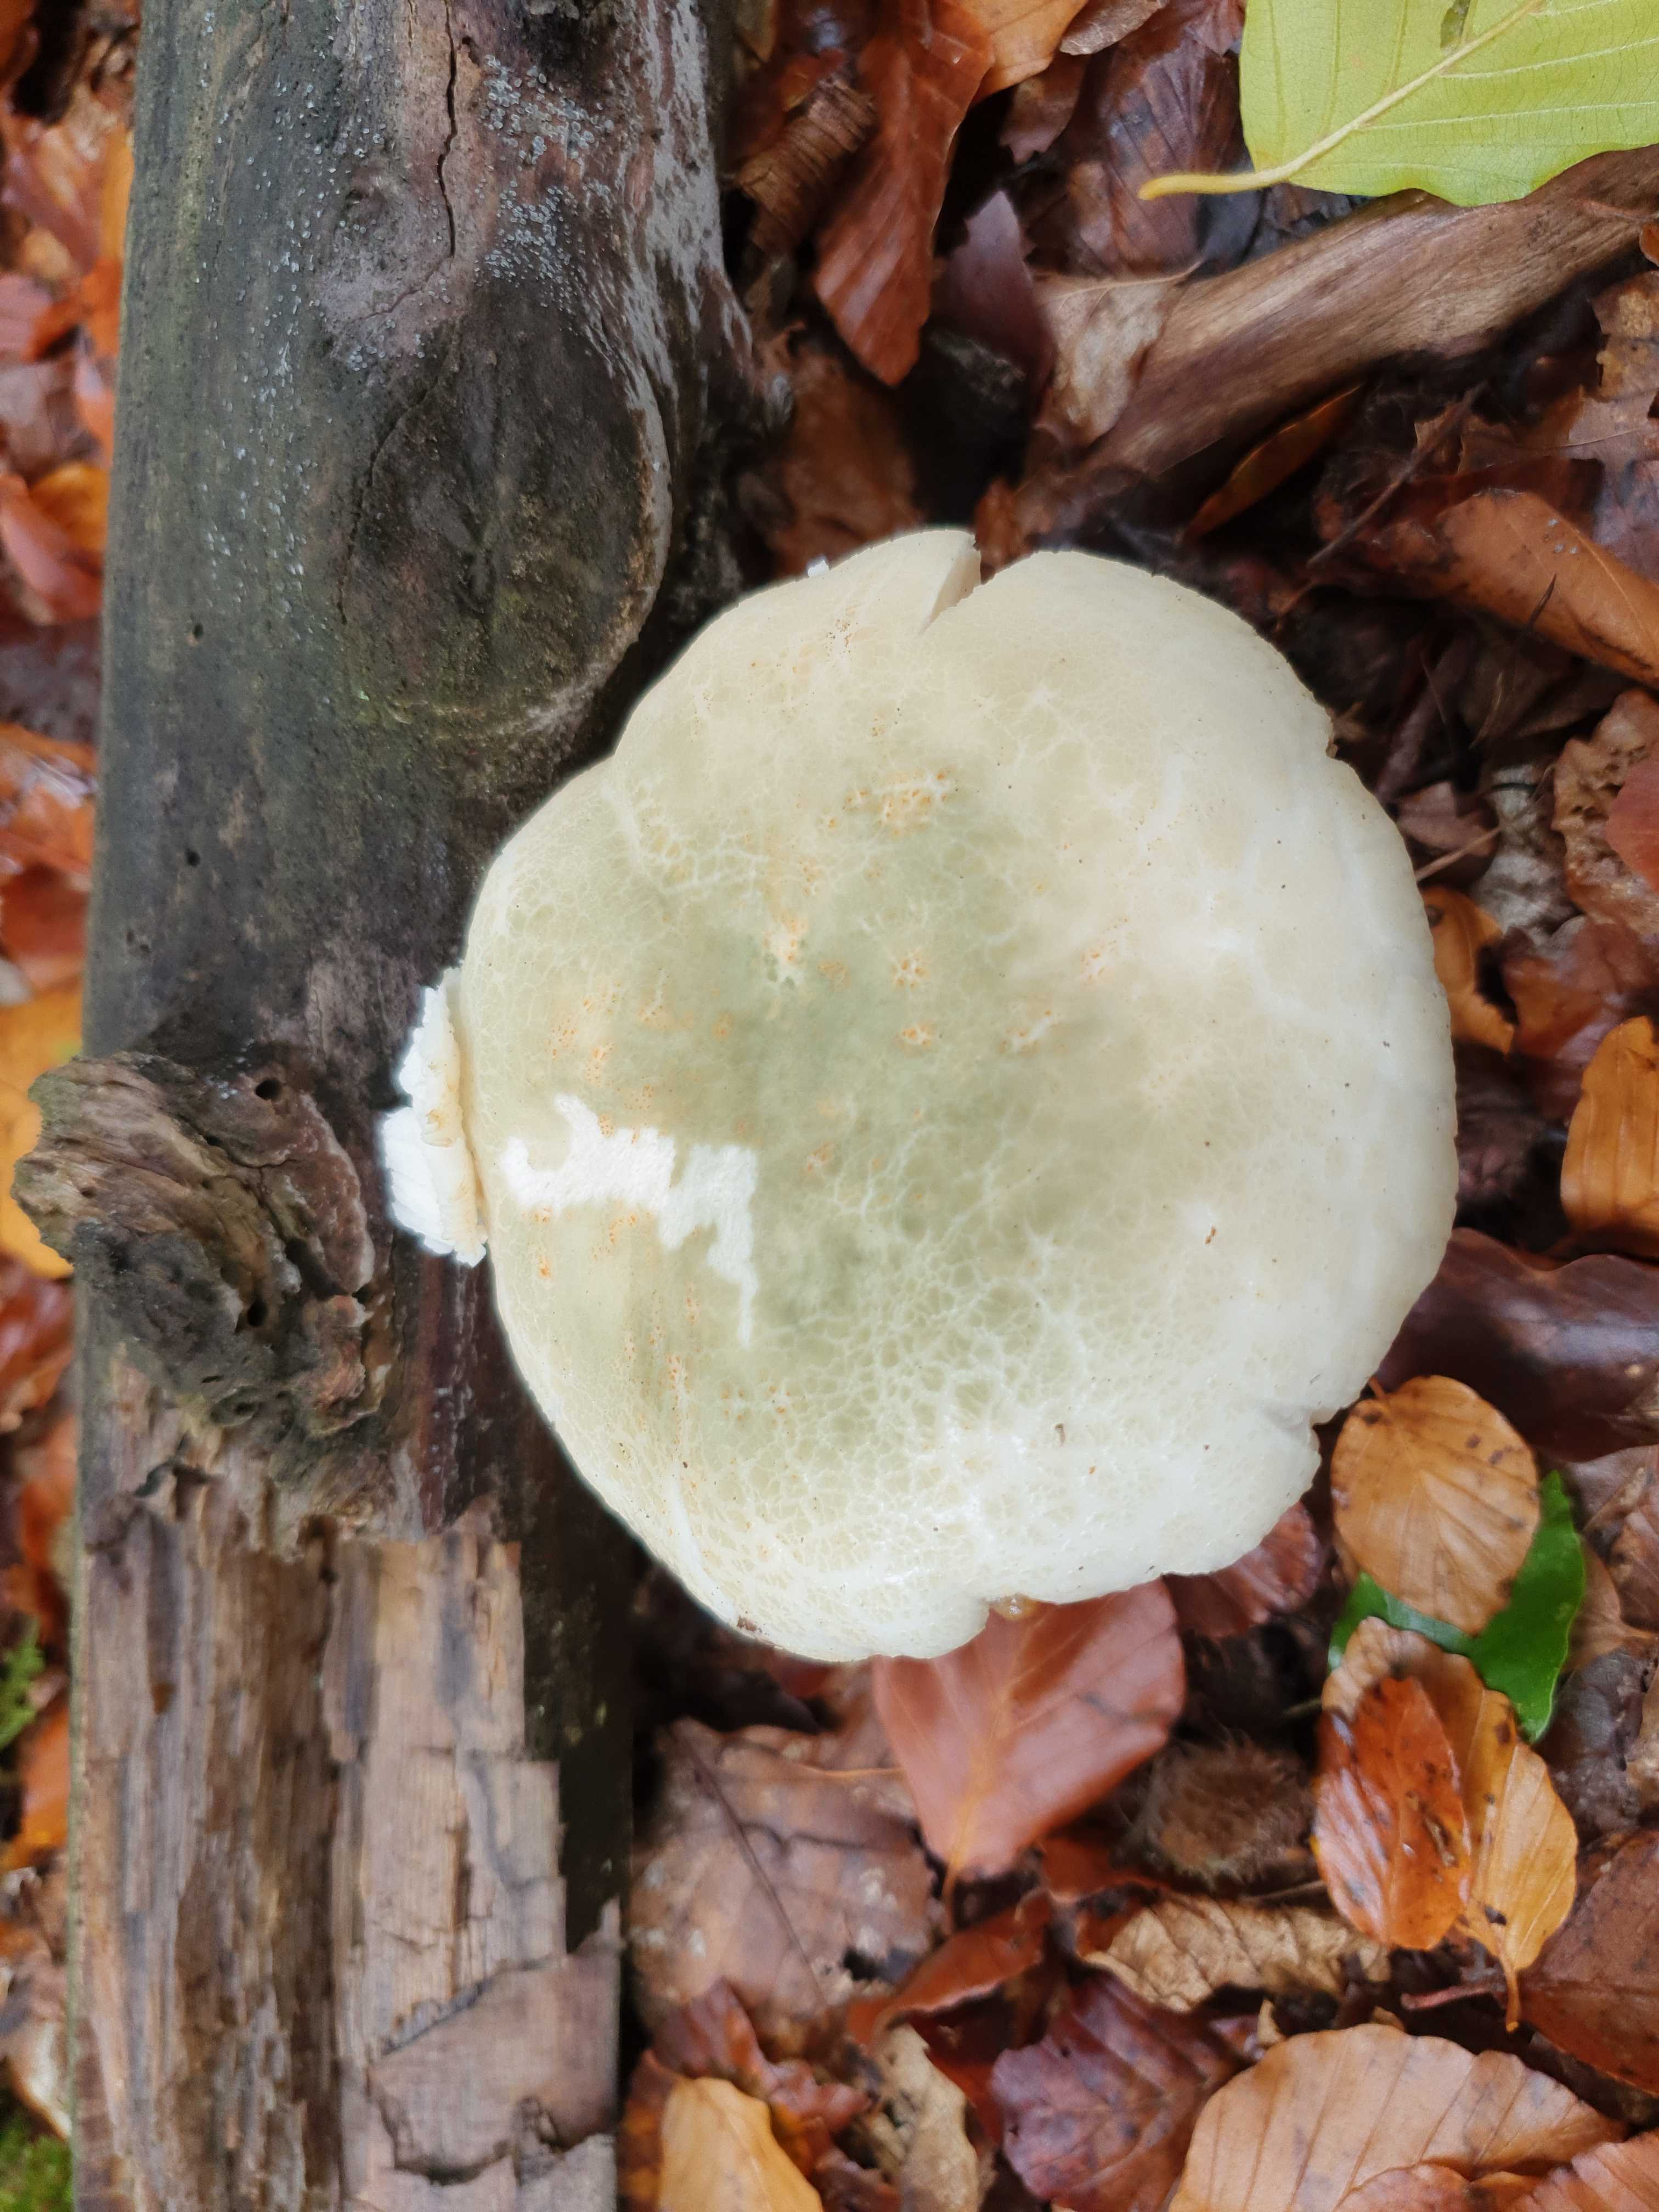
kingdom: Fungi
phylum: Basidiomycota
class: Agaricomycetes
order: Russulales
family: Russulaceae
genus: Russula
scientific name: Russula virescens
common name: spanskgrøn skørhat
